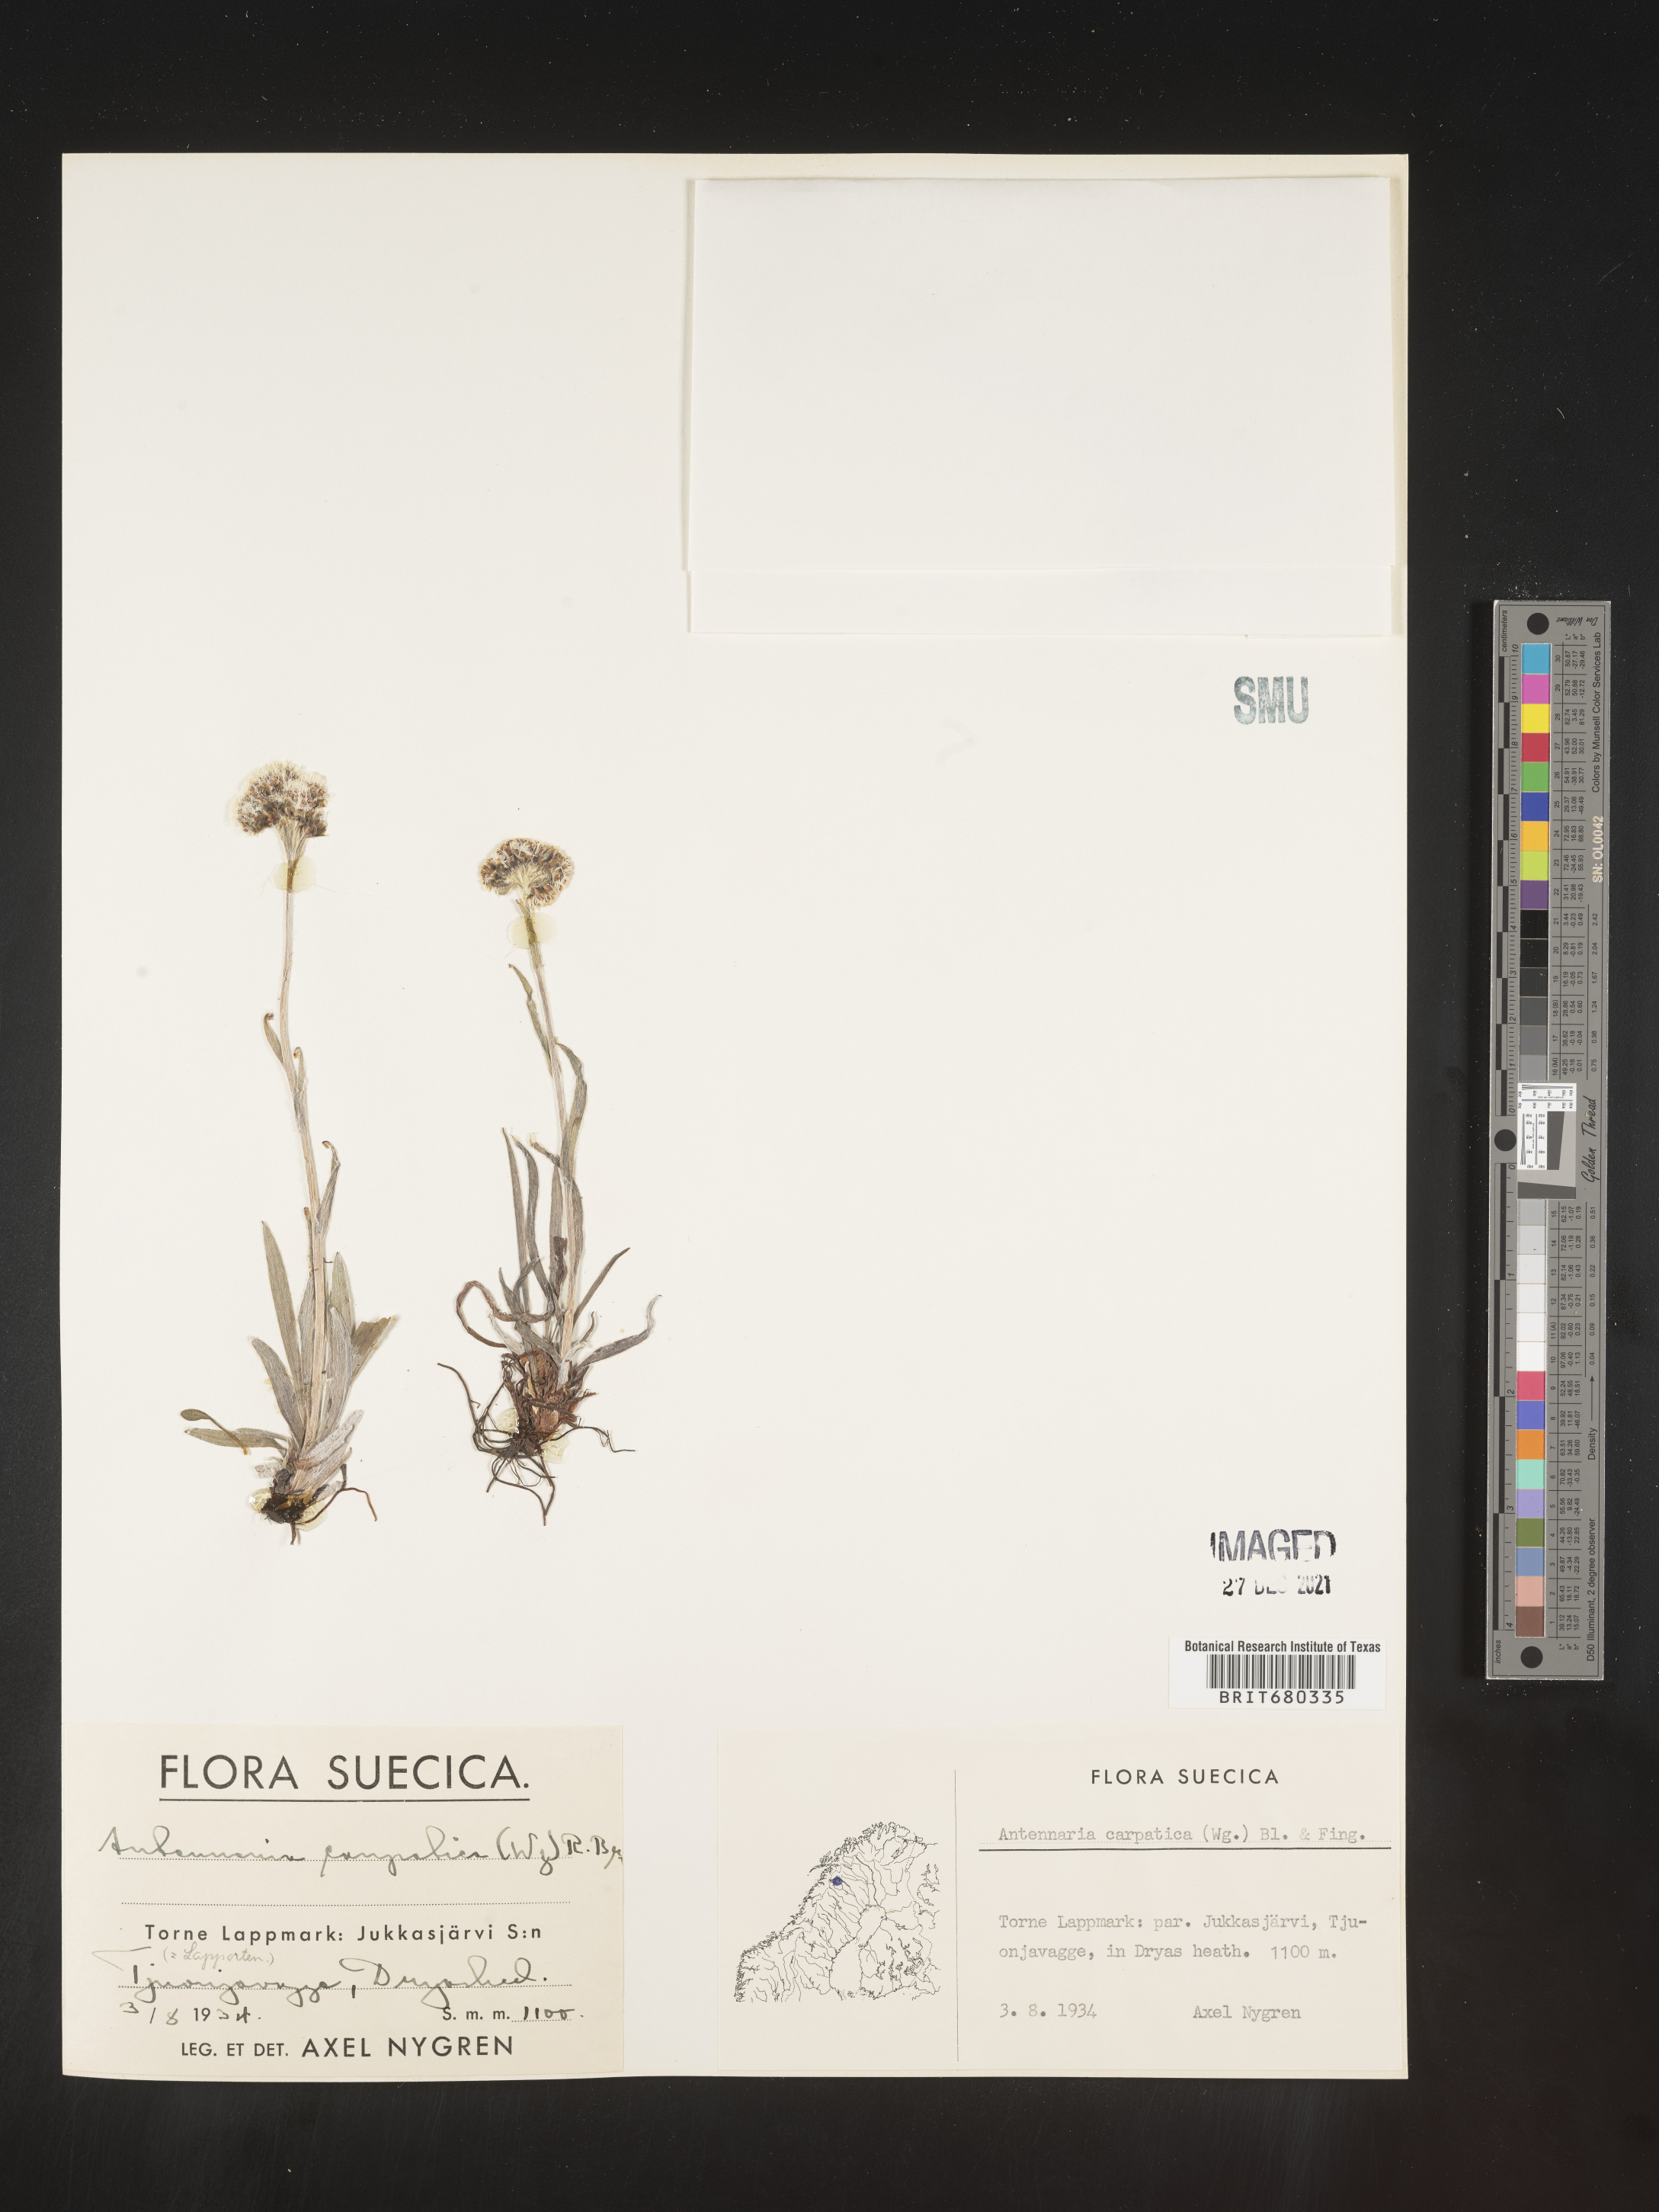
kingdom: Plantae
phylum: Tracheophyta
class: Magnoliopsida
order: Asterales
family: Asteraceae
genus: Antennaria
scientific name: Antennaria
